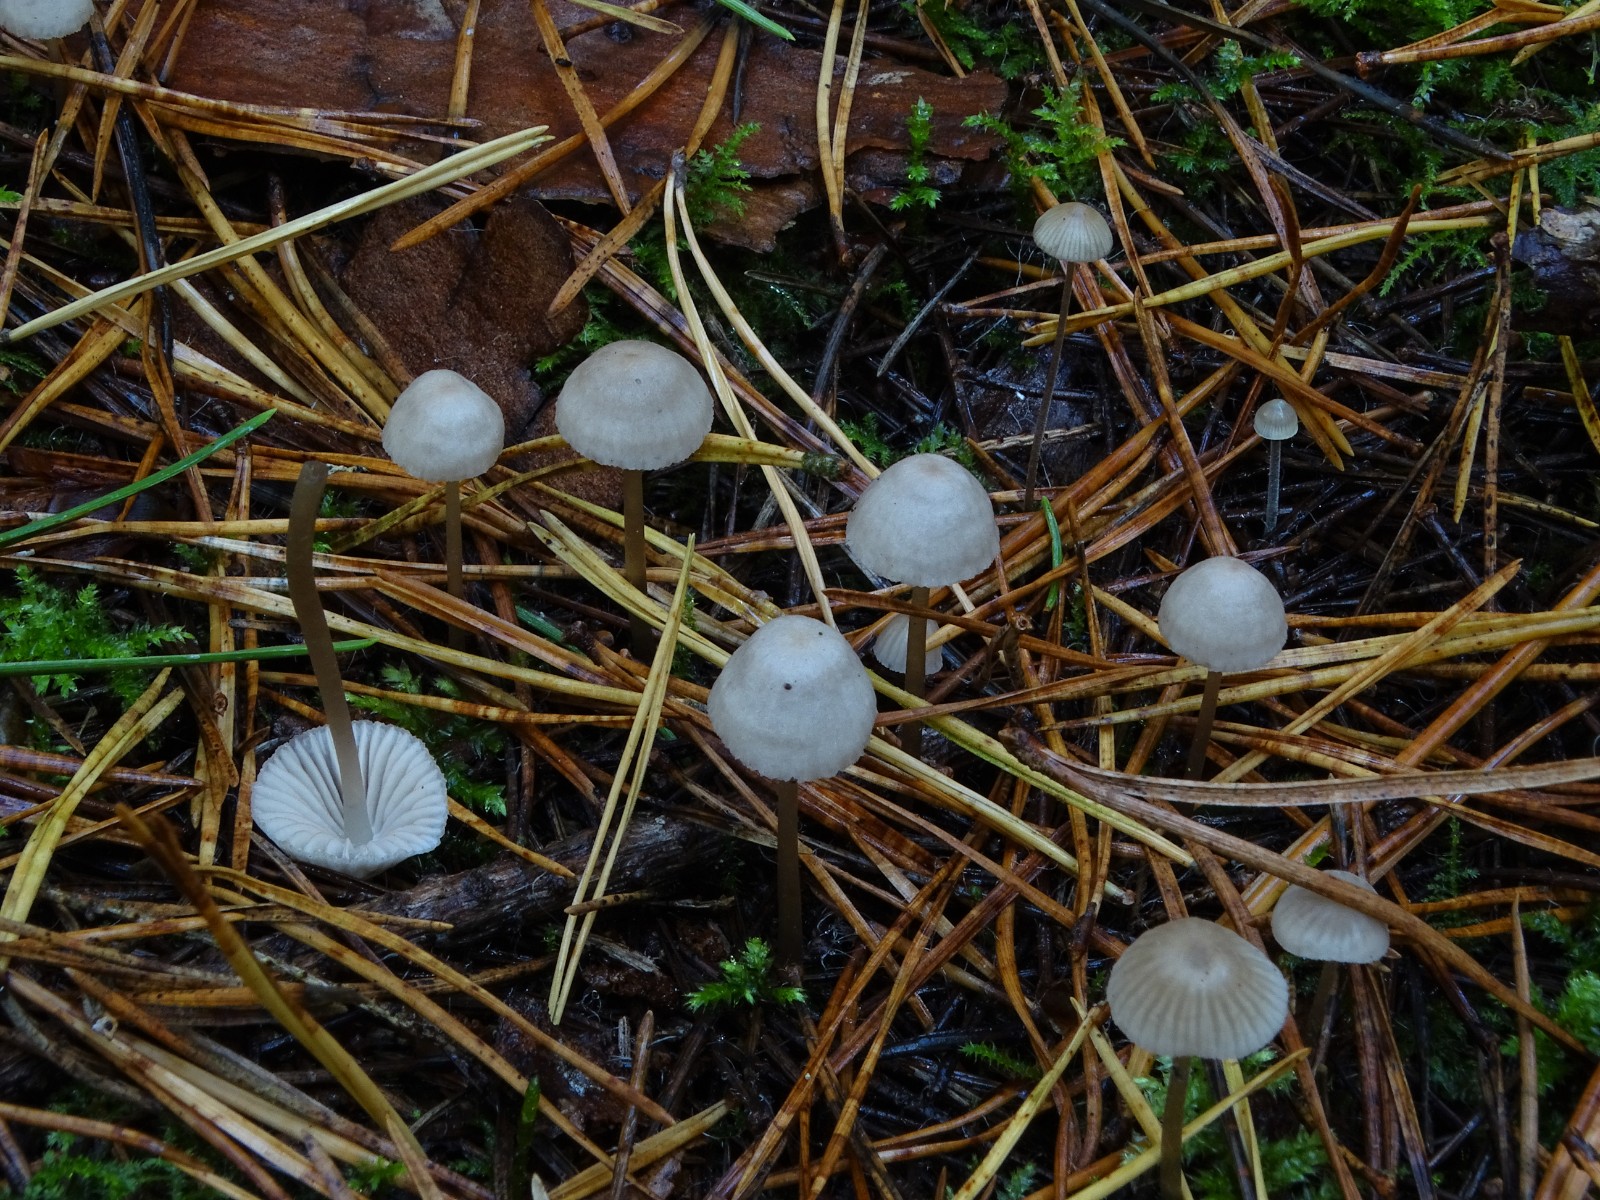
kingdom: Fungi
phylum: Basidiomycota
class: Agaricomycetes
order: Agaricales
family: Mycenaceae
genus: Mycena
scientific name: Mycena leptocephala
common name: klor-huesvamp
